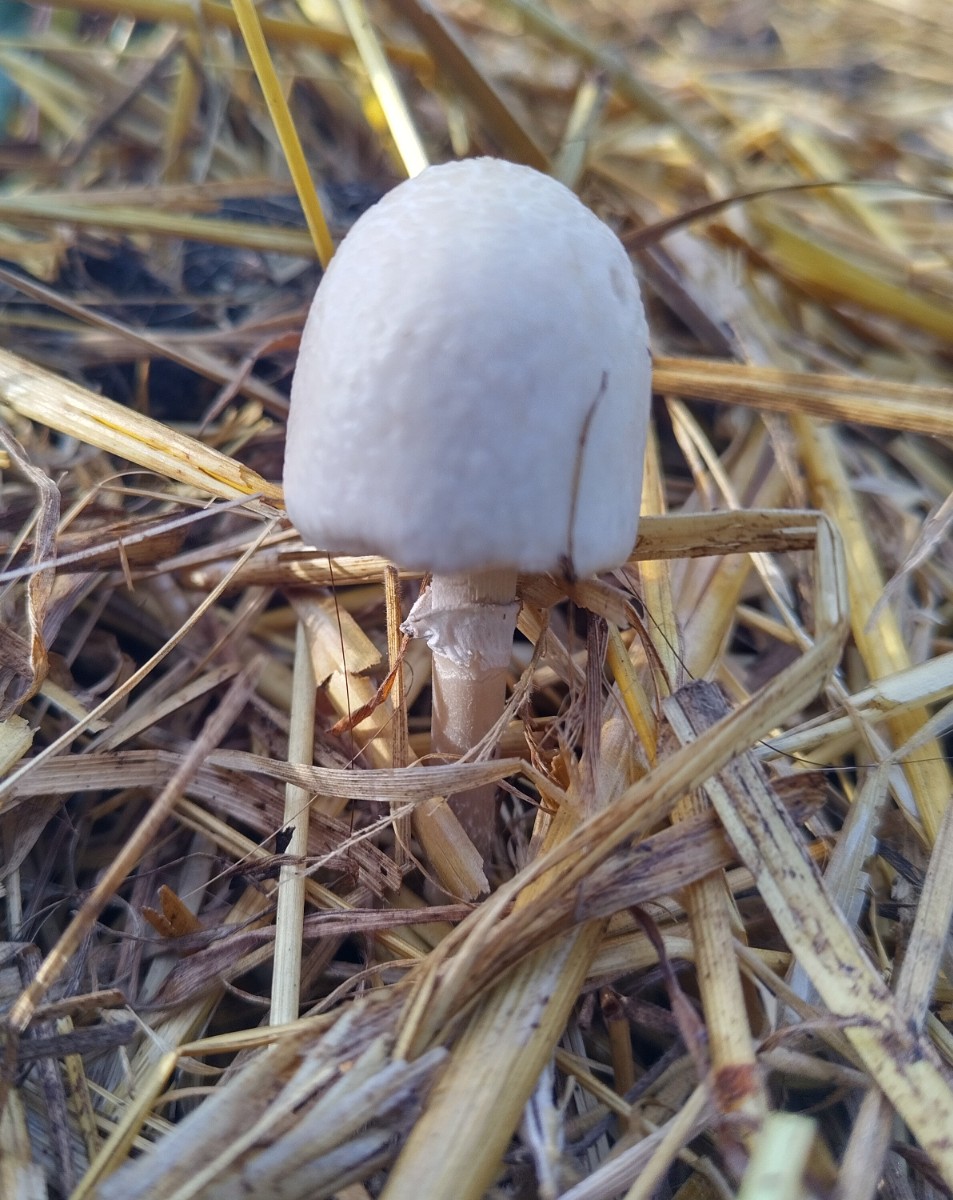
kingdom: Fungi
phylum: Basidiomycota
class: Agaricomycetes
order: Agaricales
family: Bolbitiaceae
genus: Panaeolus
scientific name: Panaeolus semiovatus
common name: ring-glanshat
